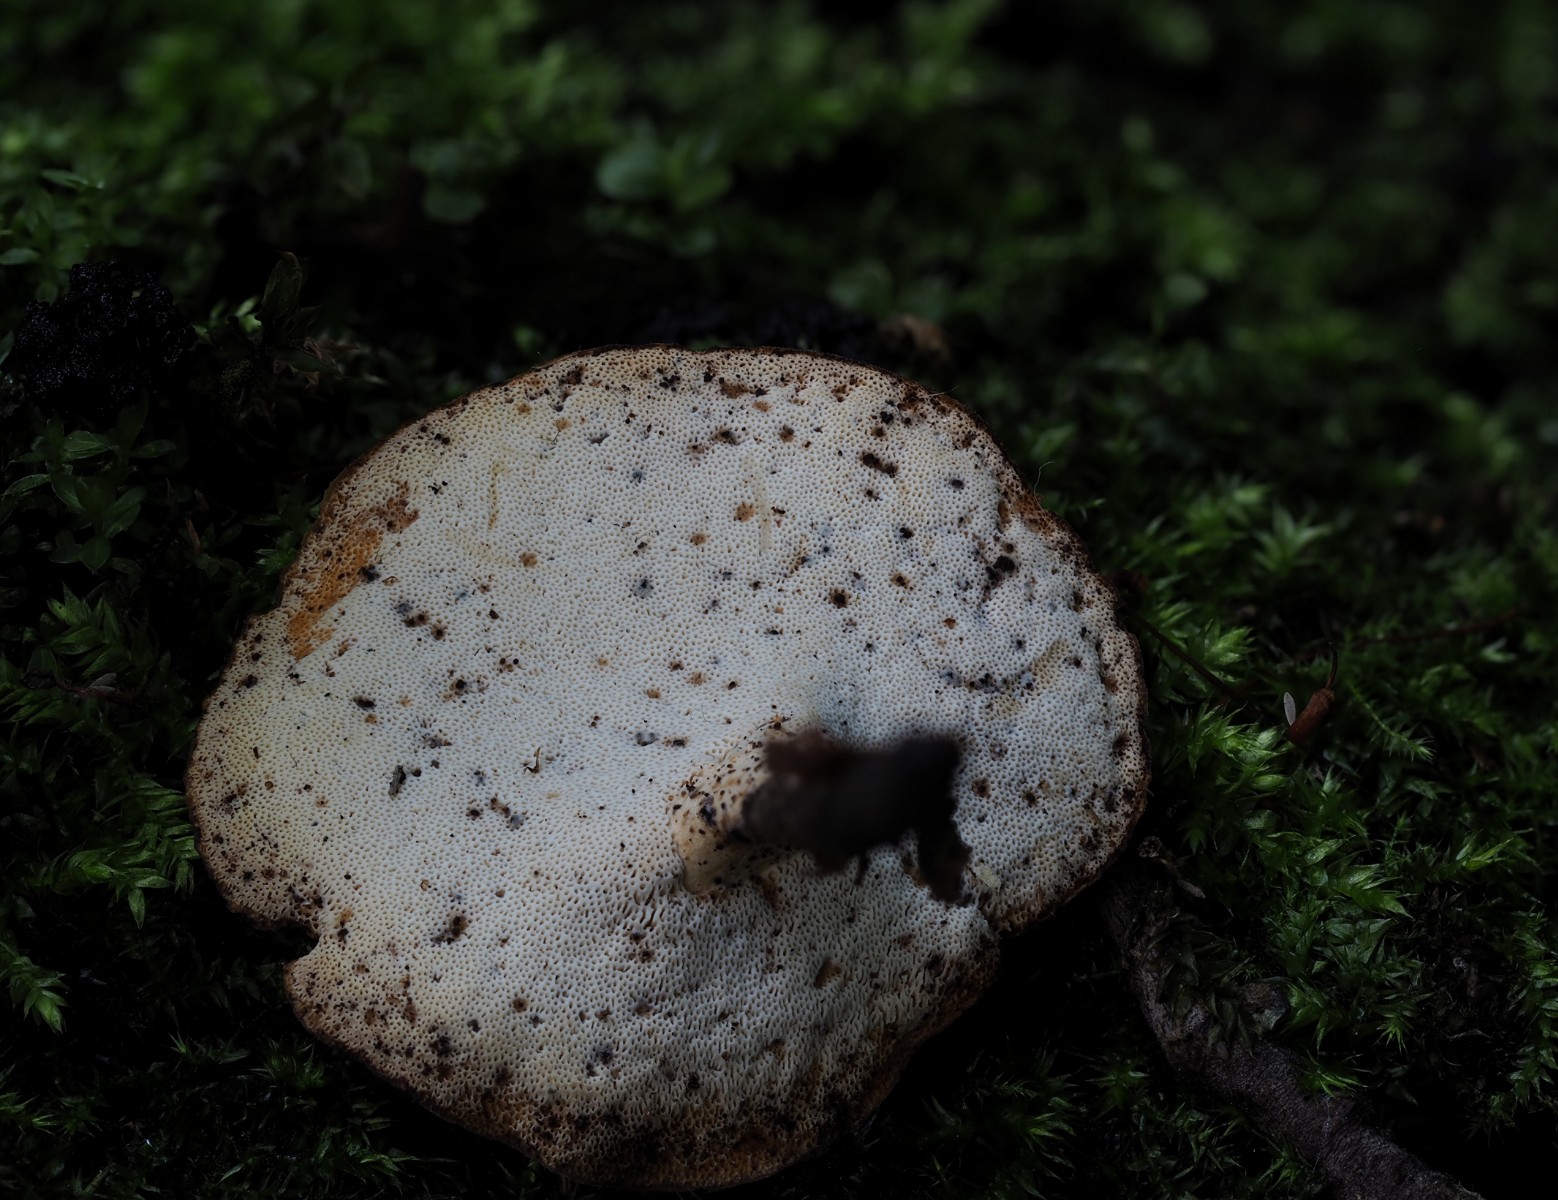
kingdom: Fungi
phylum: Basidiomycota
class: Agaricomycetes
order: Polyporales
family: Polyporaceae
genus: Cerioporus
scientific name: Cerioporus varius
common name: foranderlig stilkporesvamp
